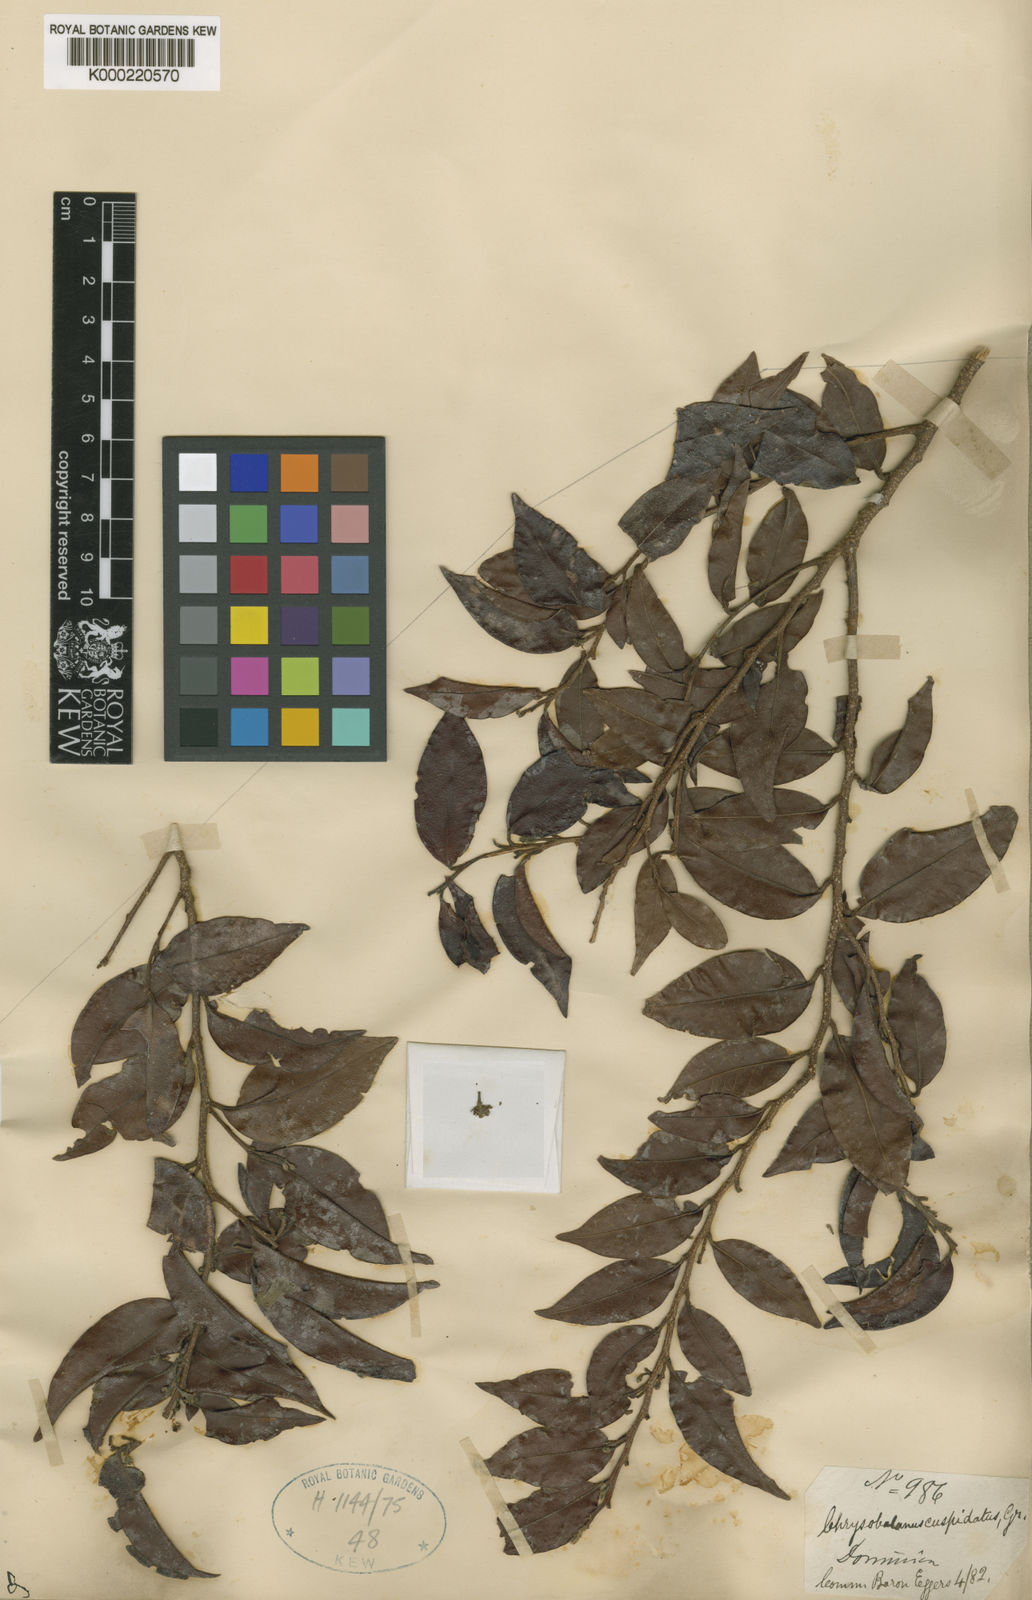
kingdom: Plantae
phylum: Tracheophyta
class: Magnoliopsida
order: Malpighiales
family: Chrysobalanaceae
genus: Chrysobalanus
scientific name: Chrysobalanus cuspidatus
